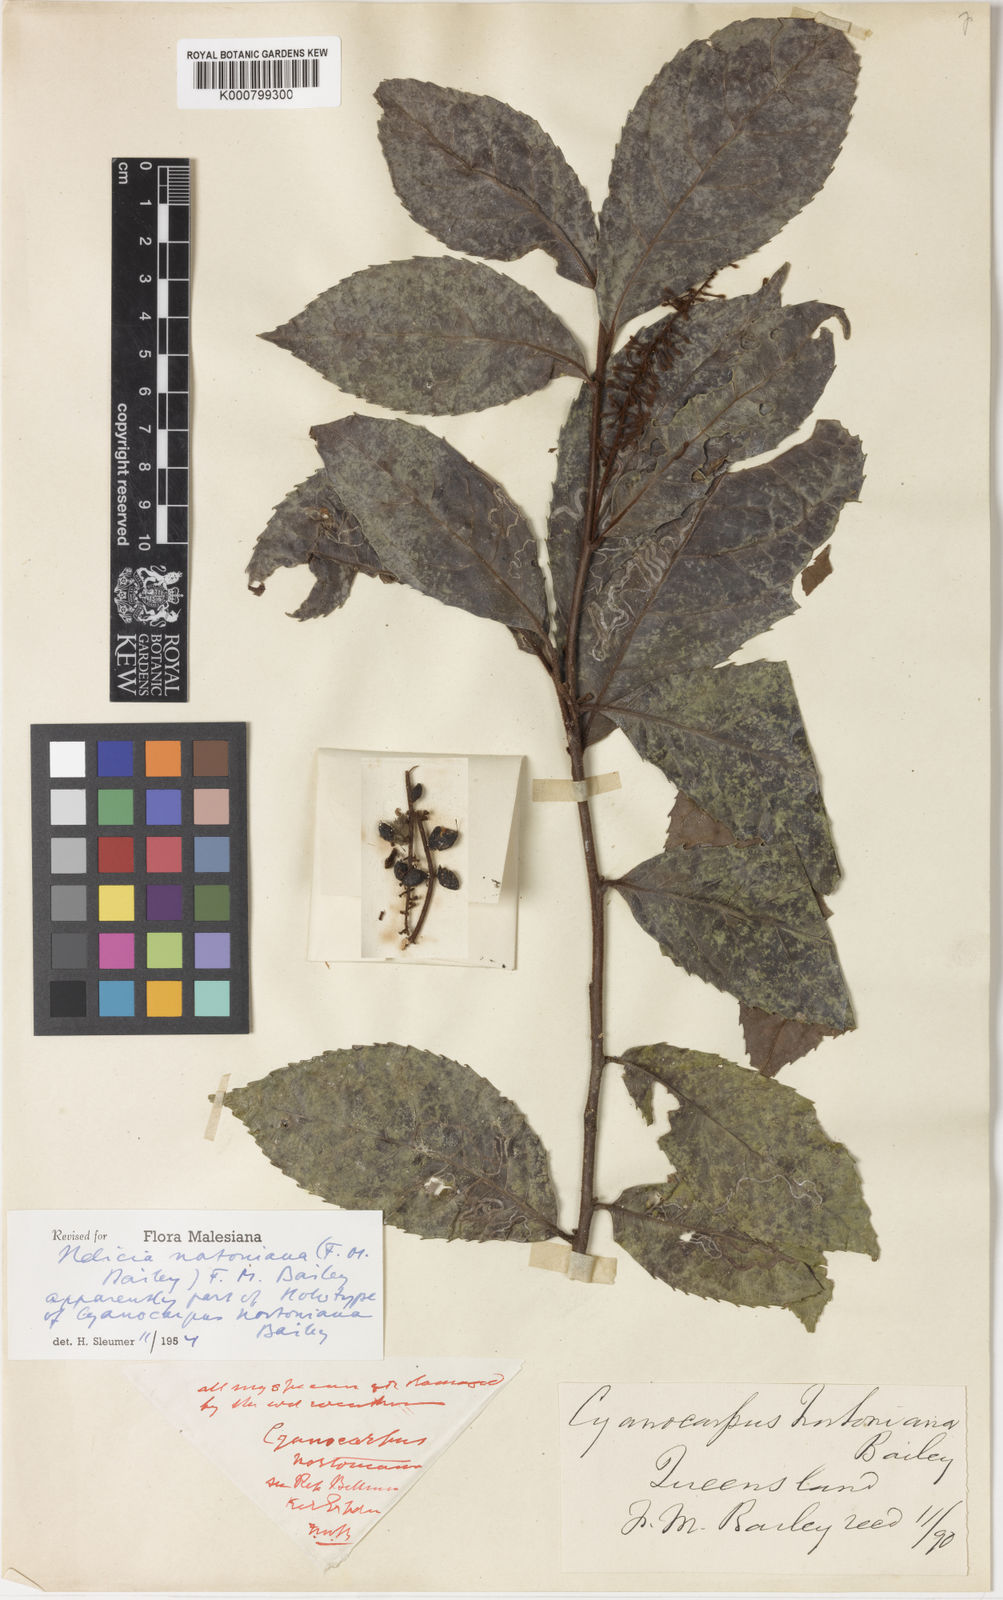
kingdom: Plantae
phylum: Tracheophyta
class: Magnoliopsida
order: Proteales
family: Proteaceae
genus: Helicia
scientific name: Helicia nortoniana
